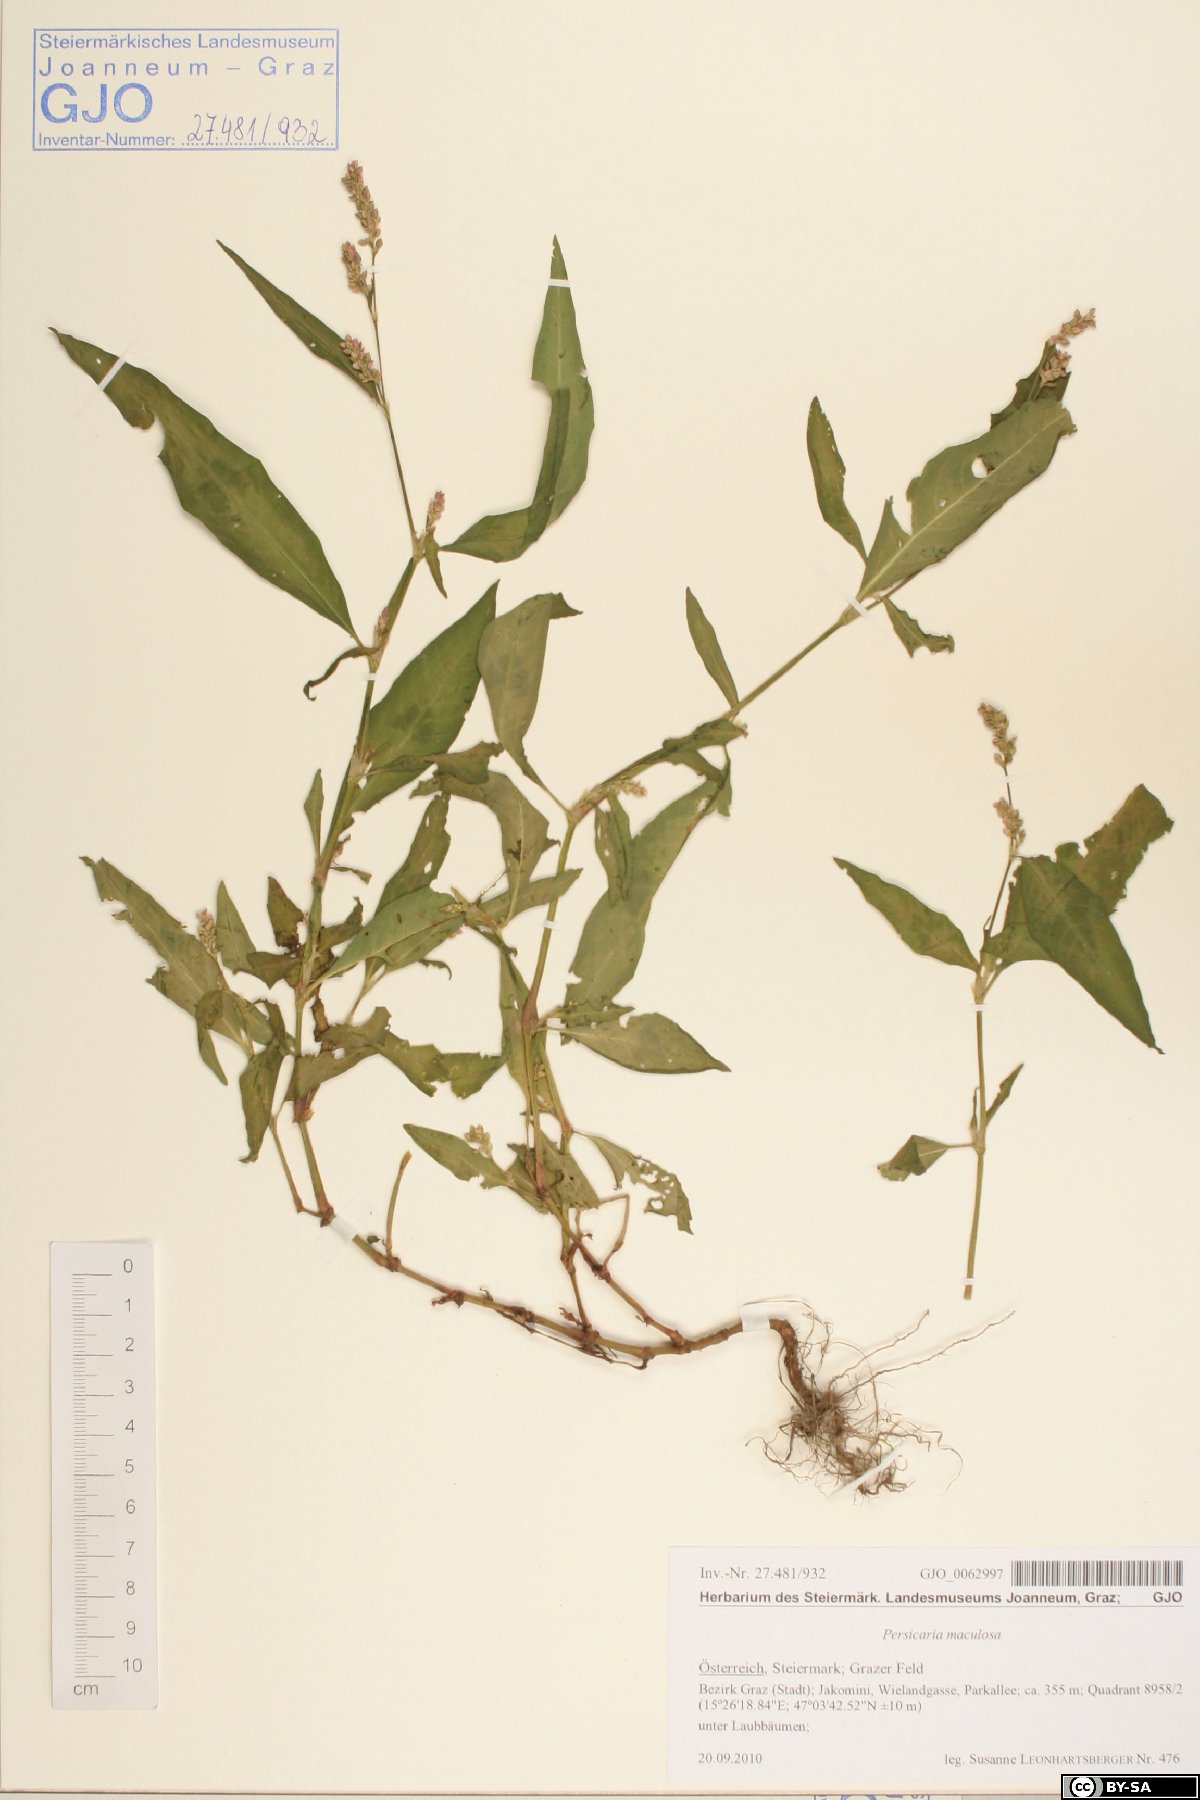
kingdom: Plantae
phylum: Tracheophyta
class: Magnoliopsida
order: Caryophyllales
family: Polygonaceae
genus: Persicaria
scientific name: Persicaria maculosa
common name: Redshank
